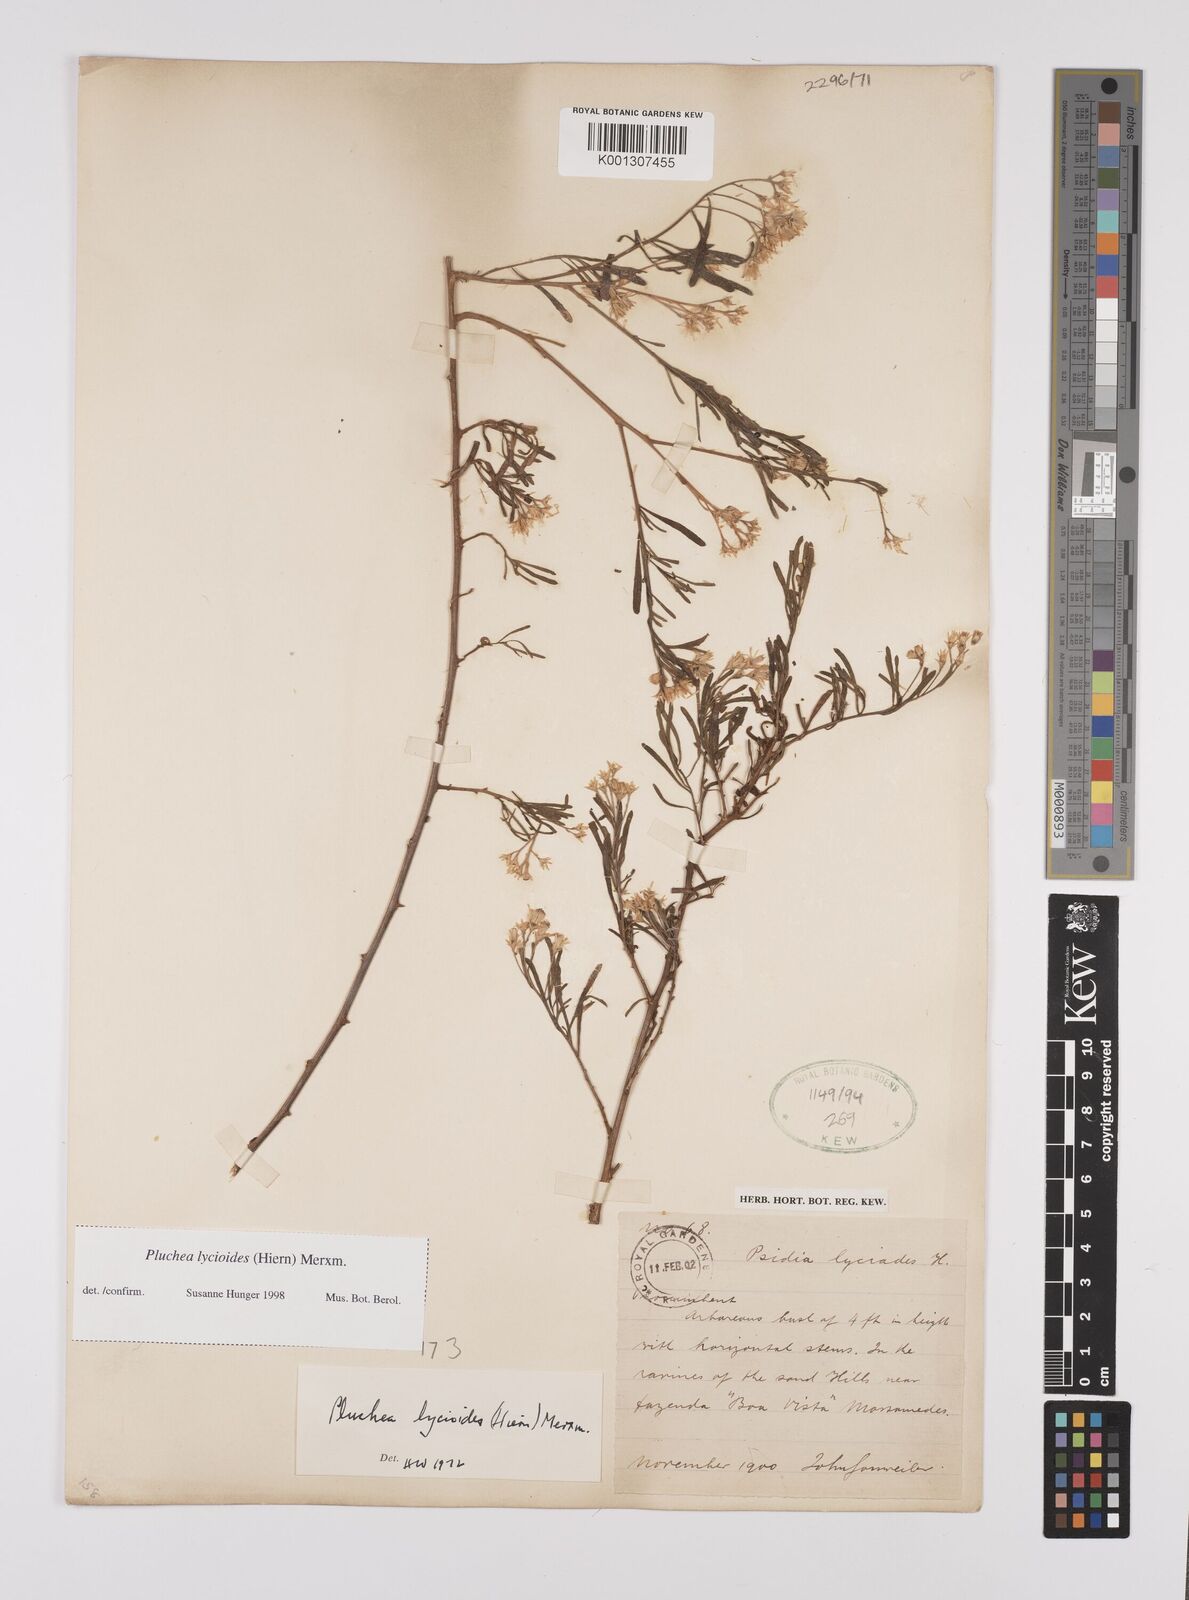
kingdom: Plantae
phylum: Tracheophyta
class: Magnoliopsida
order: Asterales
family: Asteraceae
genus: Pluchea
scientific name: Pluchea
